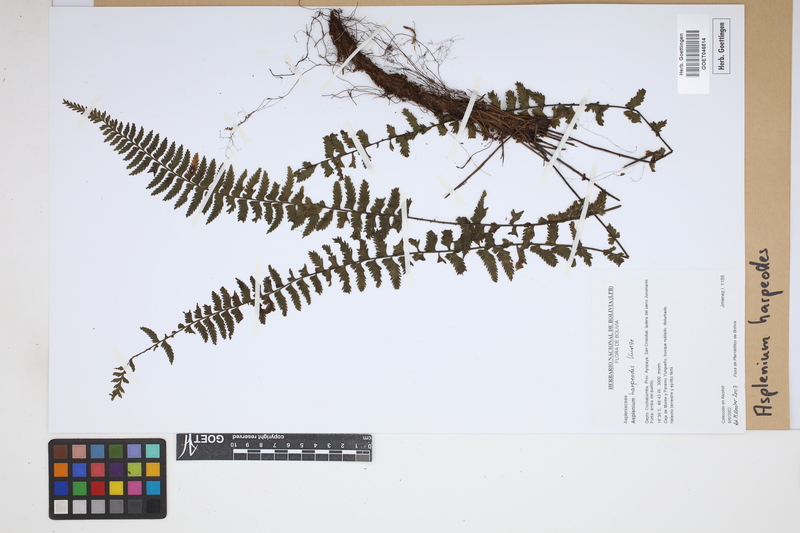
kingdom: Plantae
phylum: Tracheophyta
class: Polypodiopsida
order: Polypodiales
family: Aspleniaceae
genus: Asplenium
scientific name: Asplenium harpeodes
